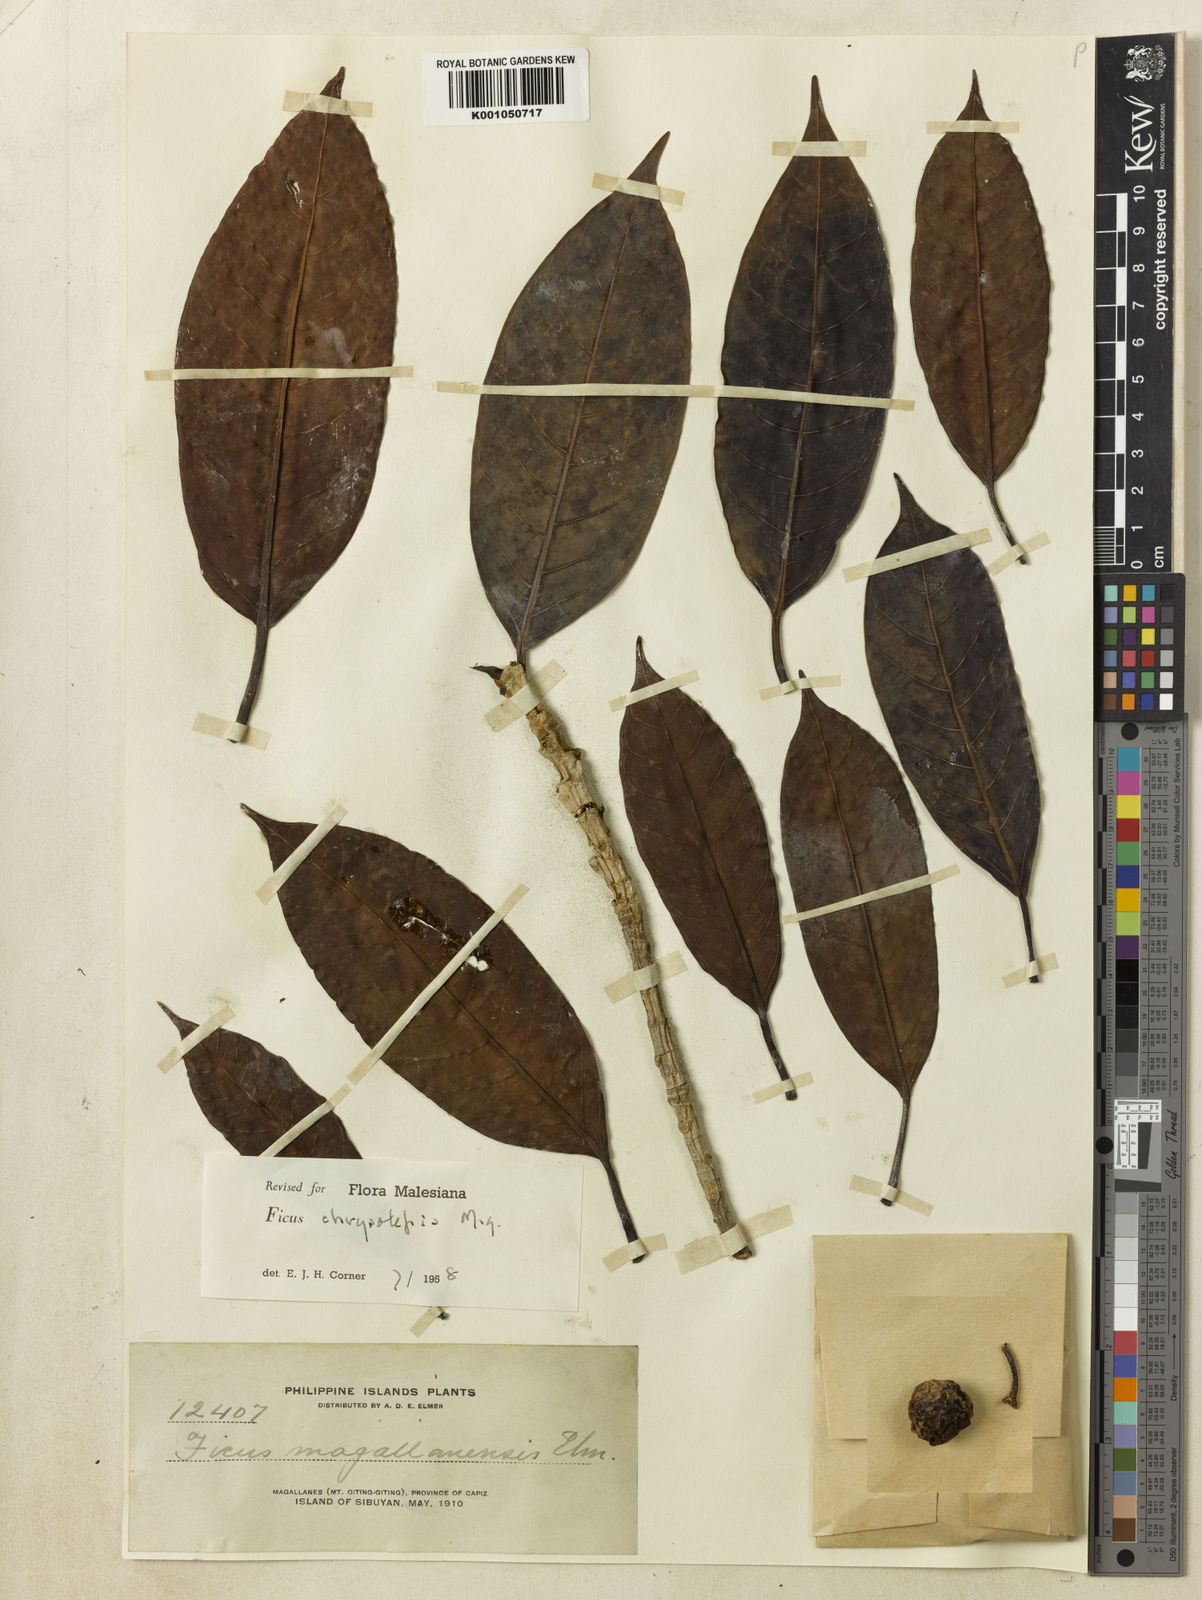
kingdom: Plantae
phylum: Tracheophyta
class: Magnoliopsida
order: Rosales
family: Moraceae
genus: Ficus
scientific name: Ficus chrysolepis
